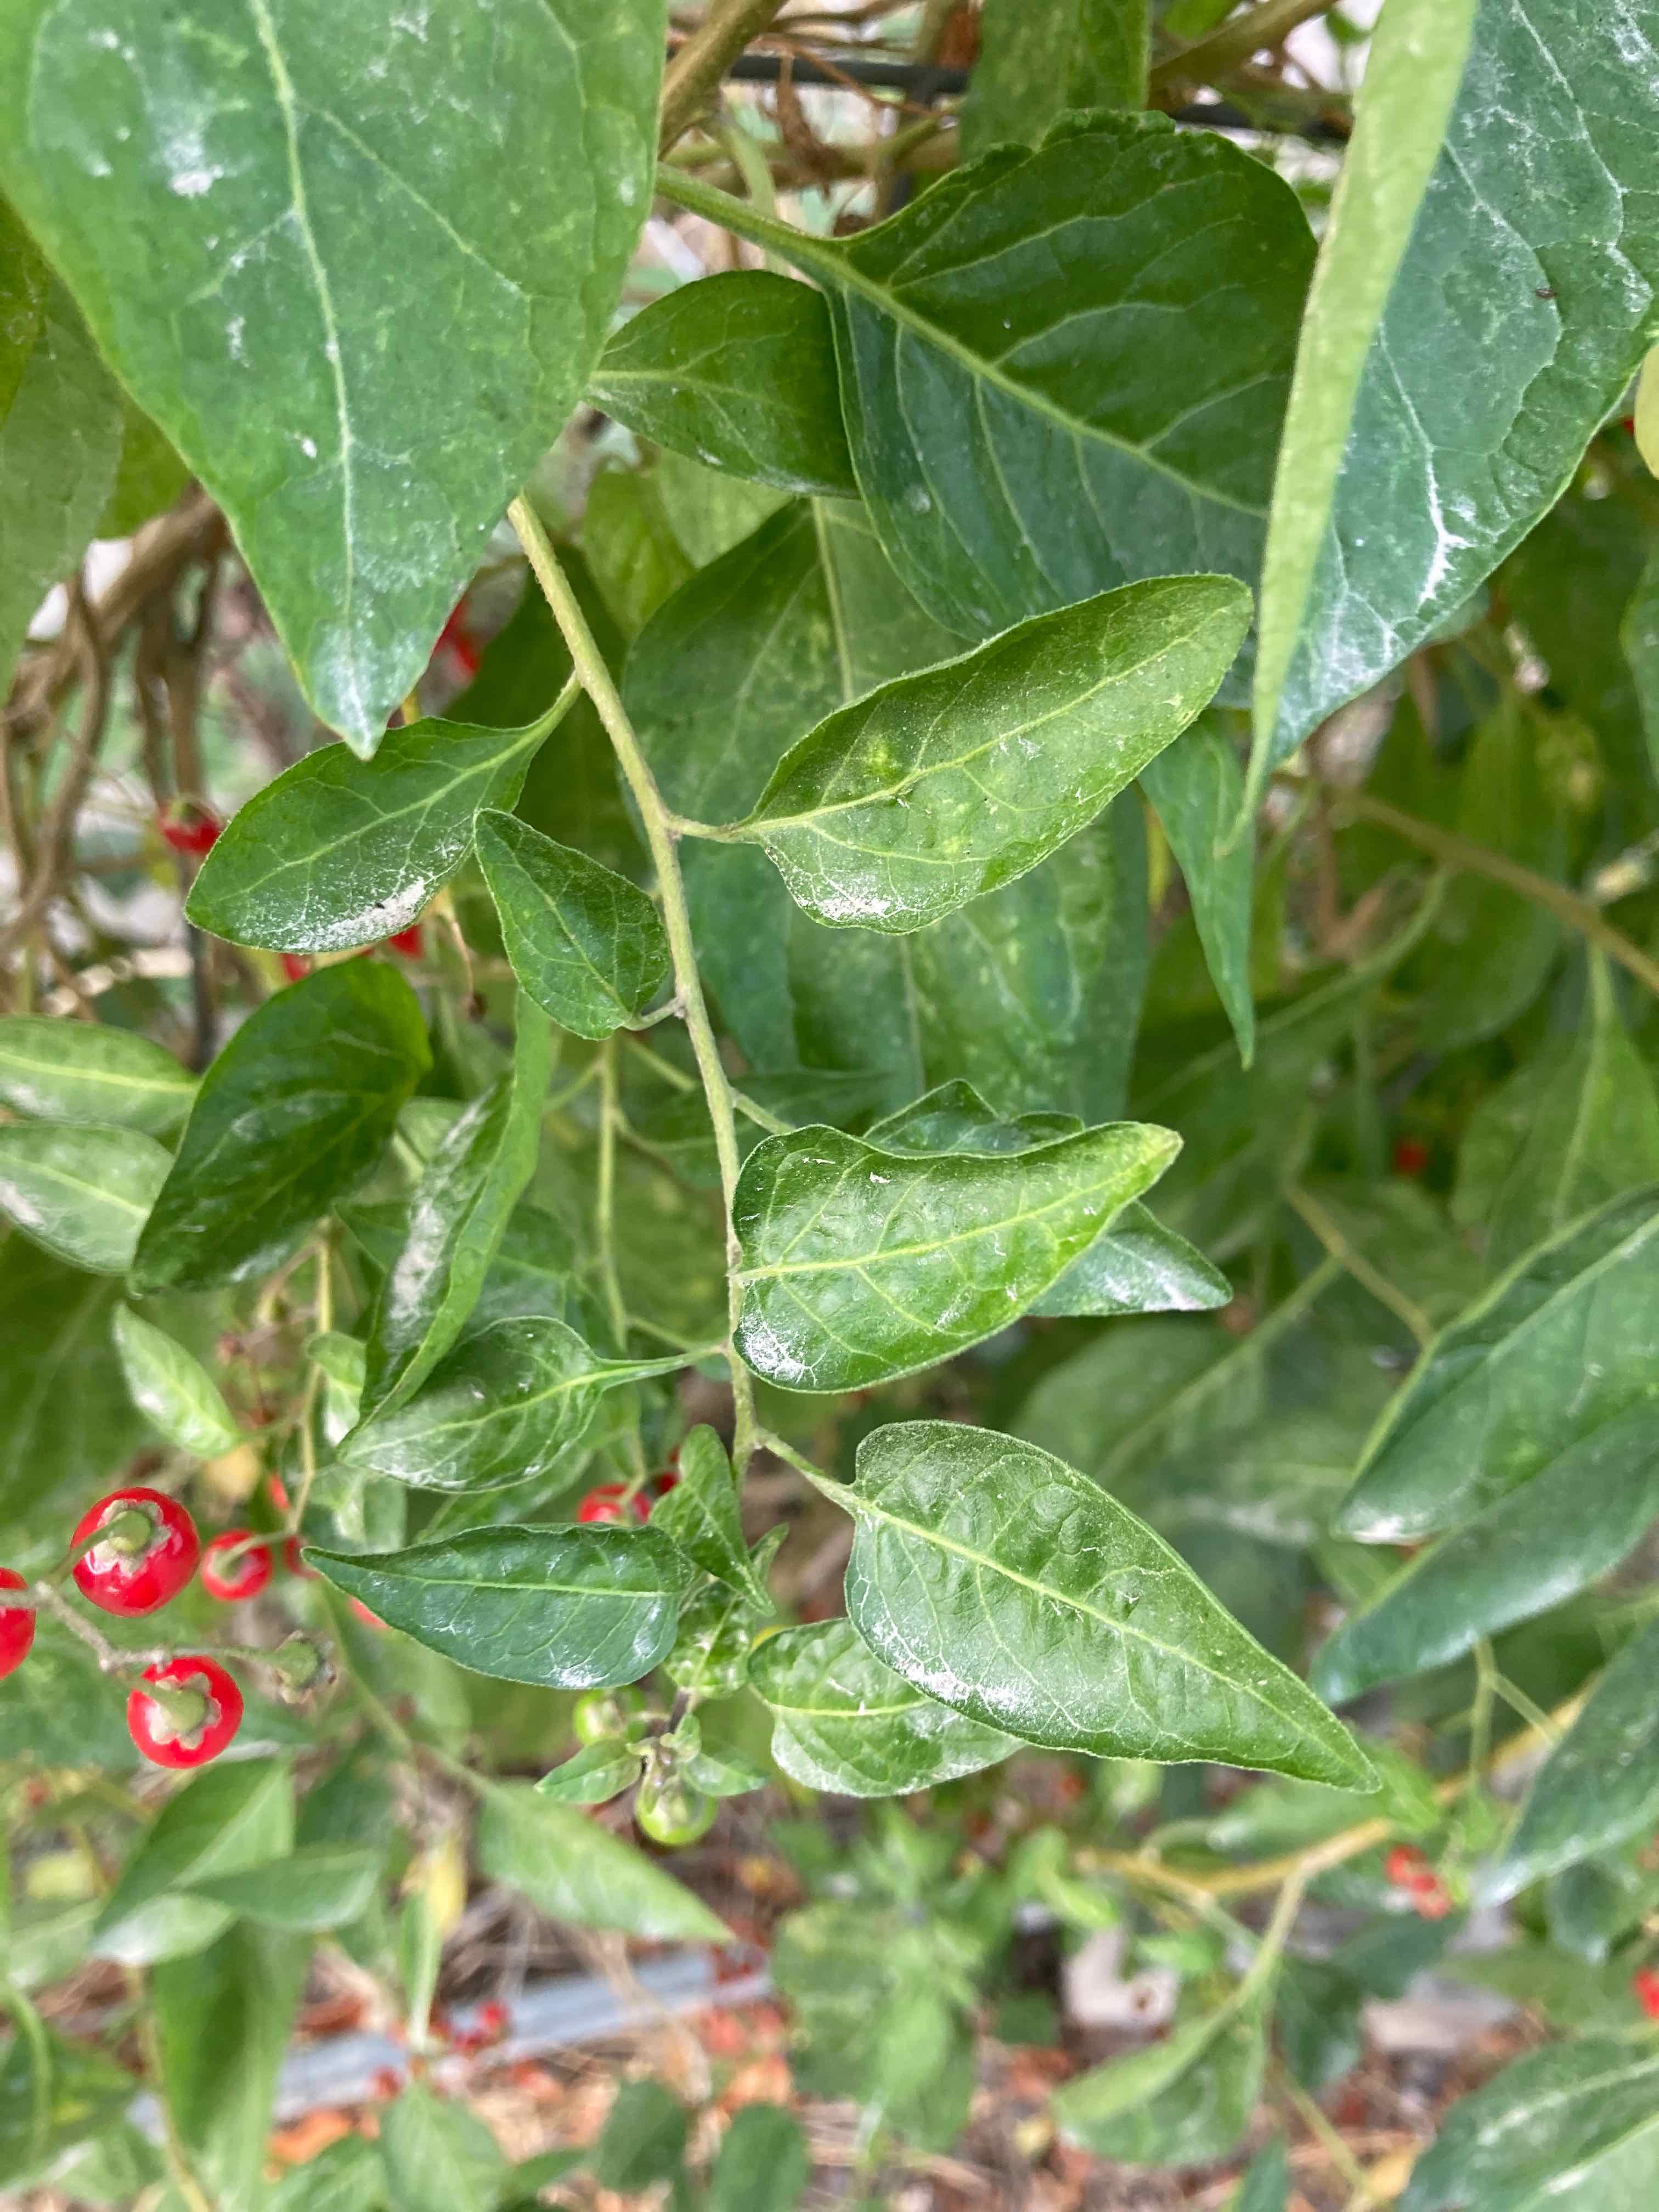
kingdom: Fungi
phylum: Ascomycota
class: Leotiomycetes
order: Helotiales
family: Erysiphaceae
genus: Erysiphe
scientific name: Erysiphe mougeotii
